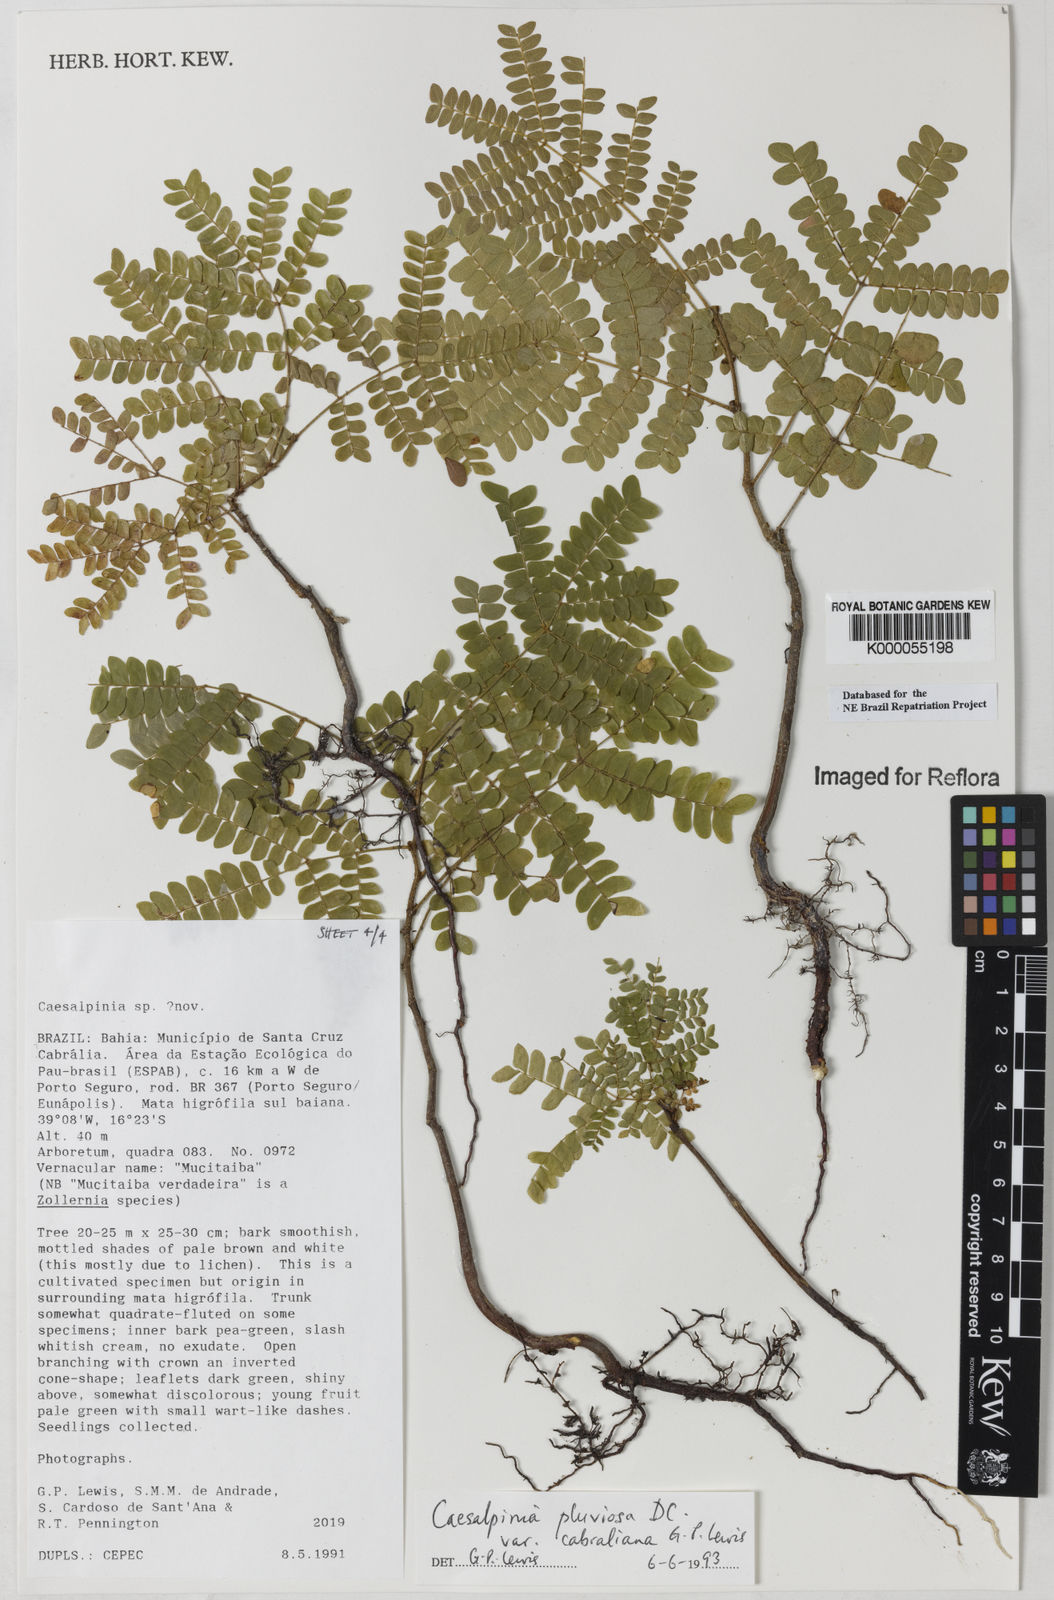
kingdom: Plantae
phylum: Tracheophyta
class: Magnoliopsida
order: Fabales
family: Fabaceae
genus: Cenostigma
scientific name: Cenostigma pluviosum
